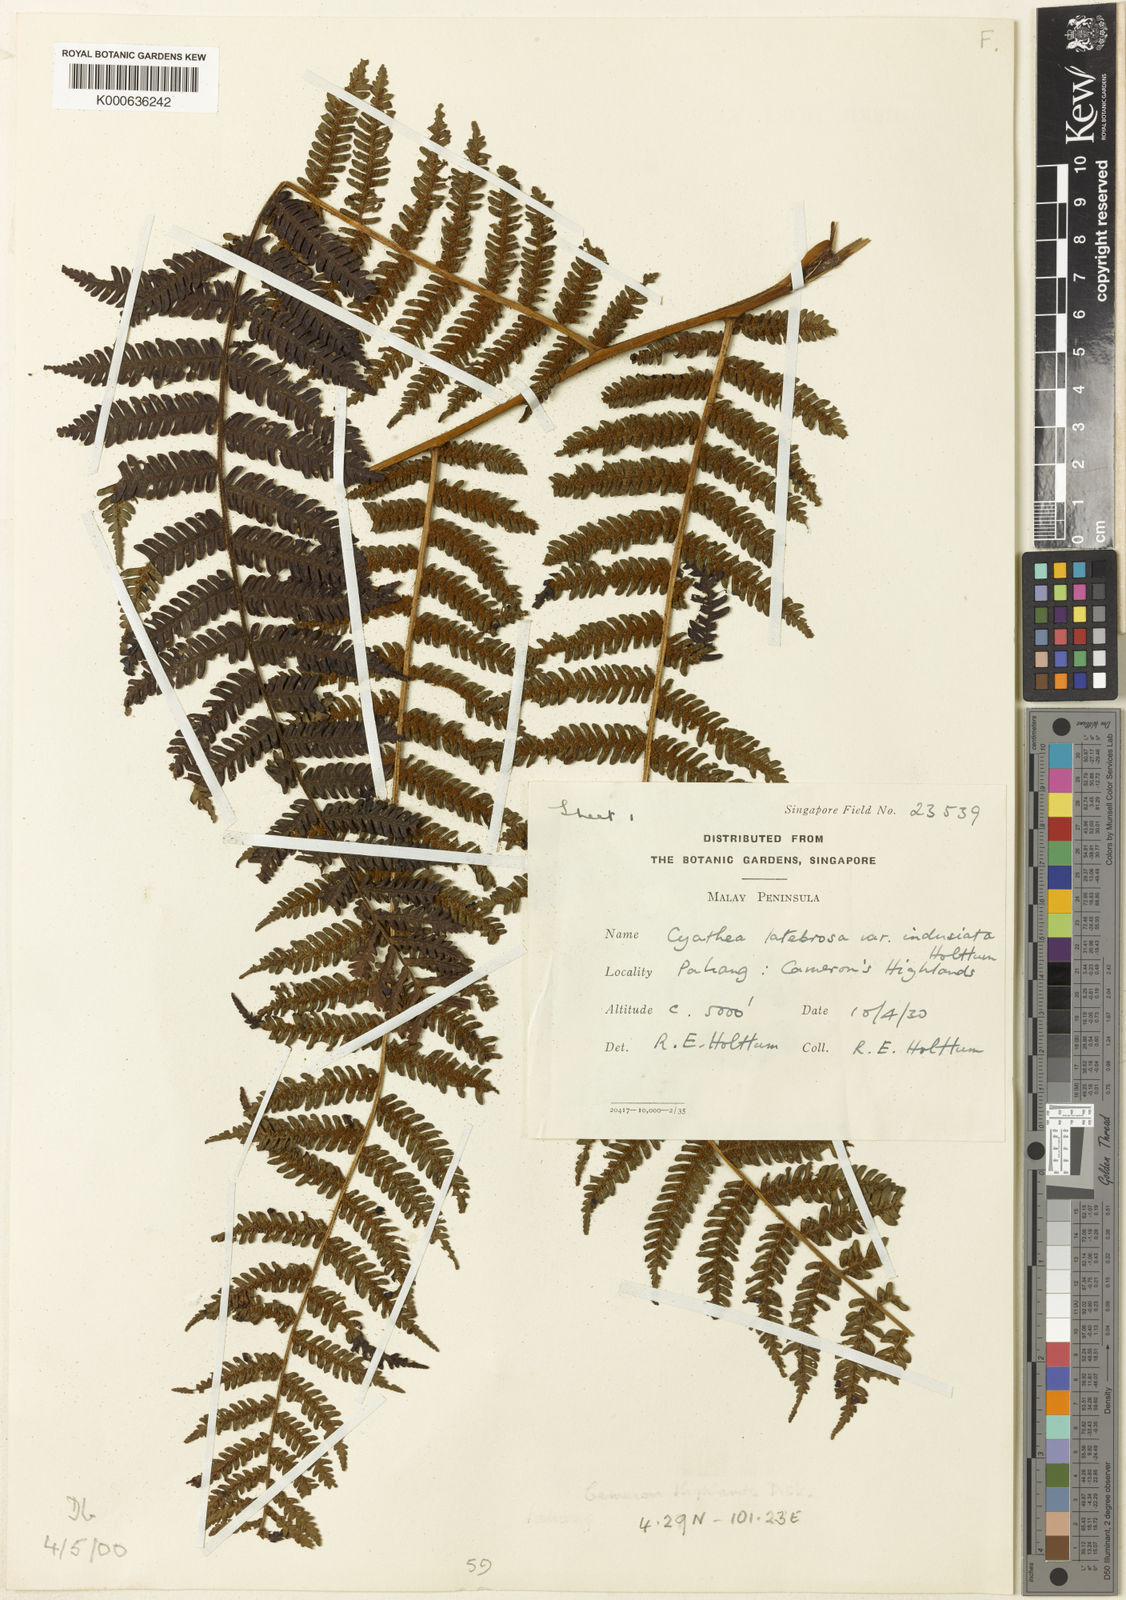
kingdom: Plantae
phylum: Tracheophyta
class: Polypodiopsida
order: Cyatheales
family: Cyatheaceae
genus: Alsophila
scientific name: Alsophila hymenodes
